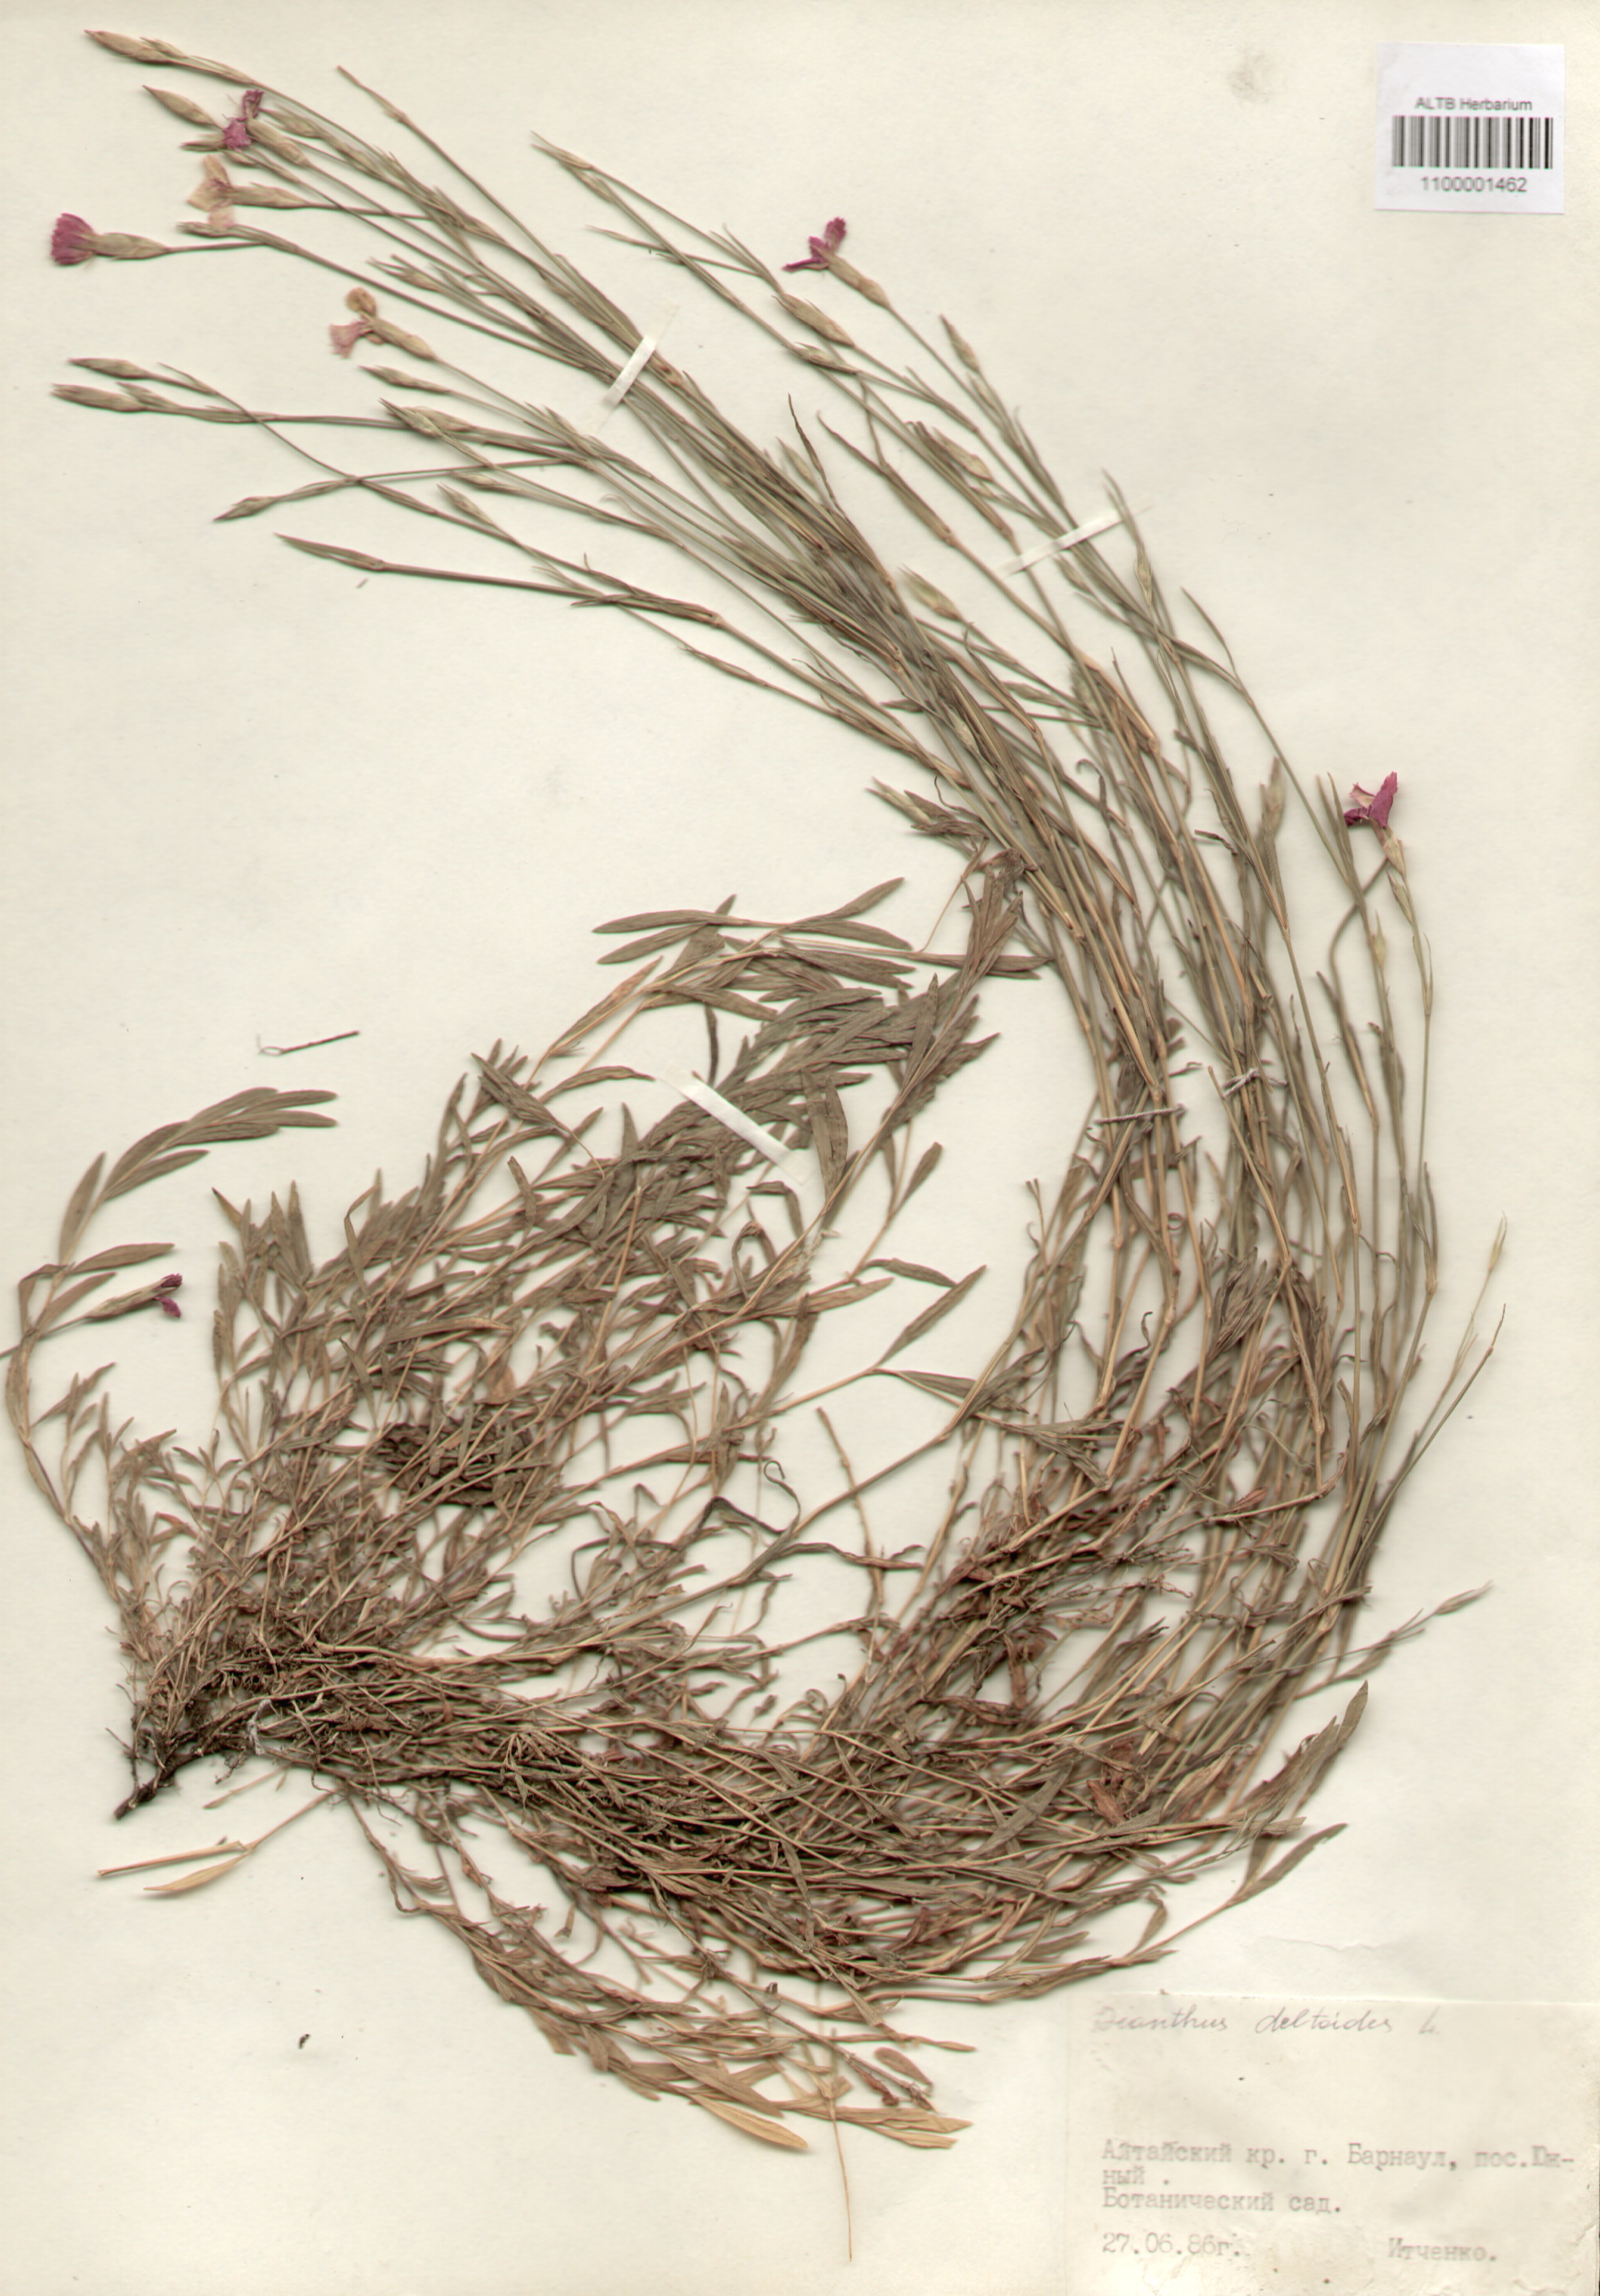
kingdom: Plantae
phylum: Tracheophyta
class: Magnoliopsida
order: Caryophyllales
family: Caryophyllaceae
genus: Dianthus
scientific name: Dianthus deltoides
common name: Maiden pink
